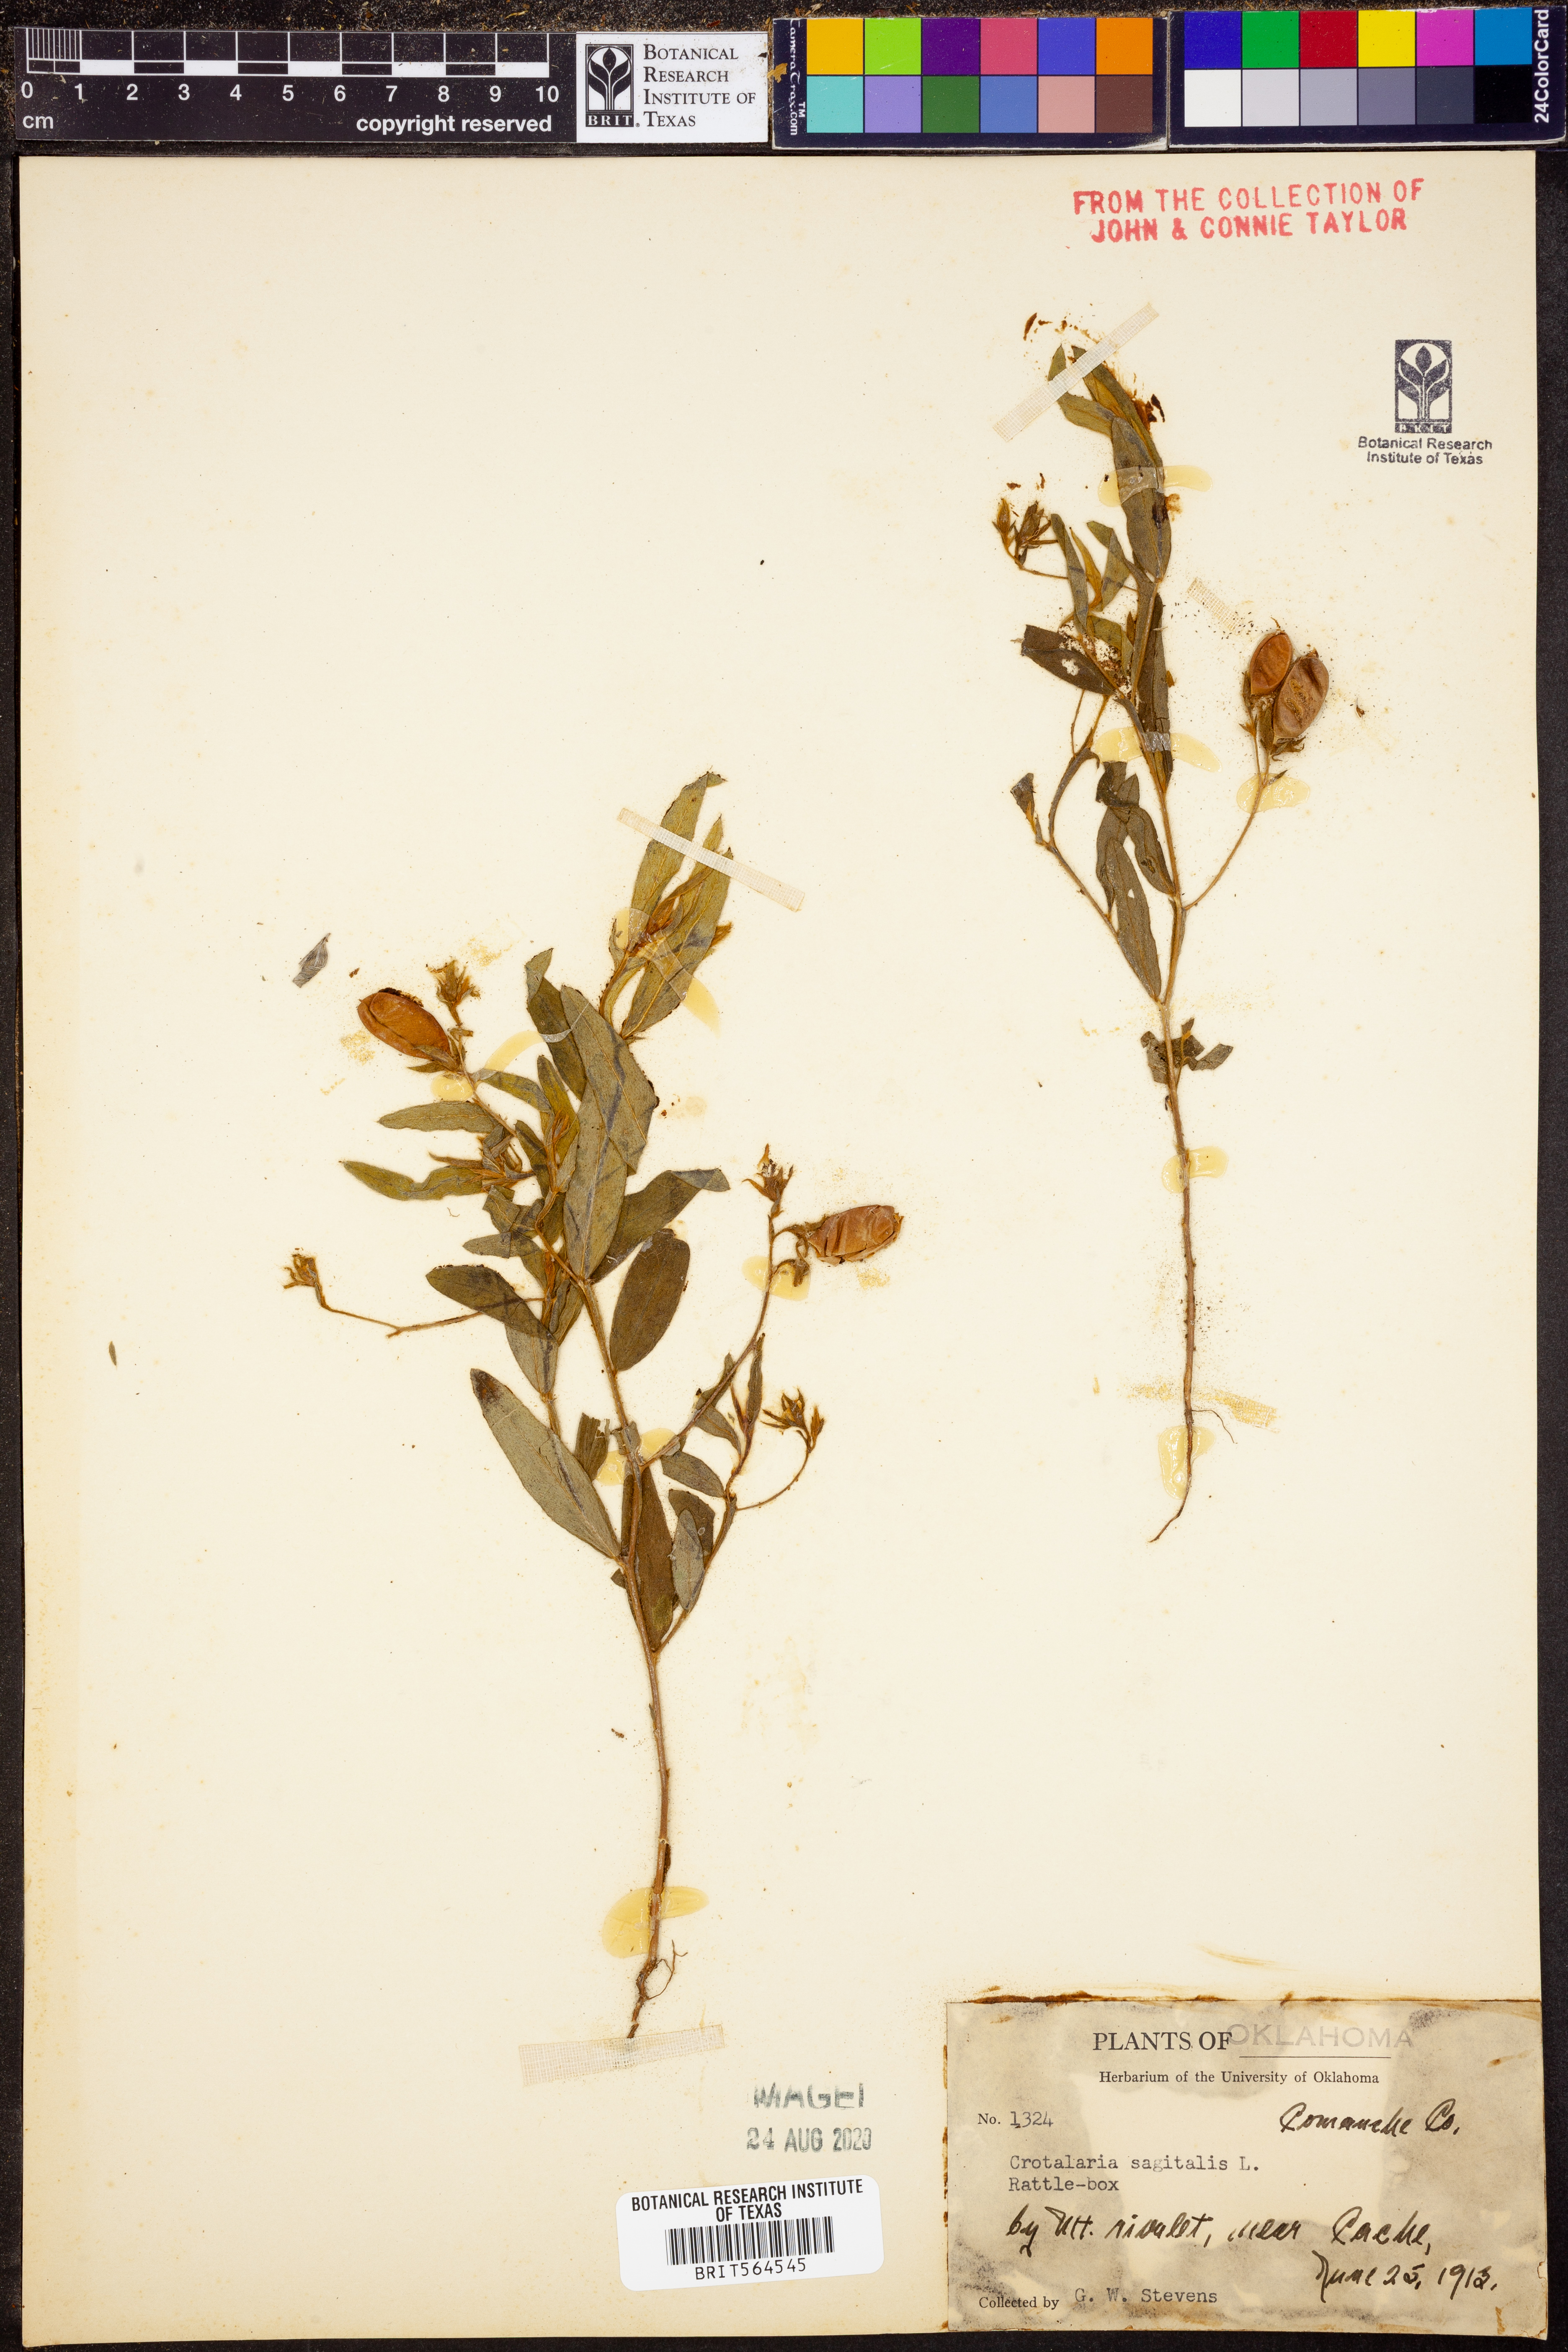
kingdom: Plantae
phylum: Tracheophyta
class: Magnoliopsida
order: Fabales
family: Fabaceae
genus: Crotalaria
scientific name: Crotalaria sagittalis
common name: Arrowhead rattlebox
